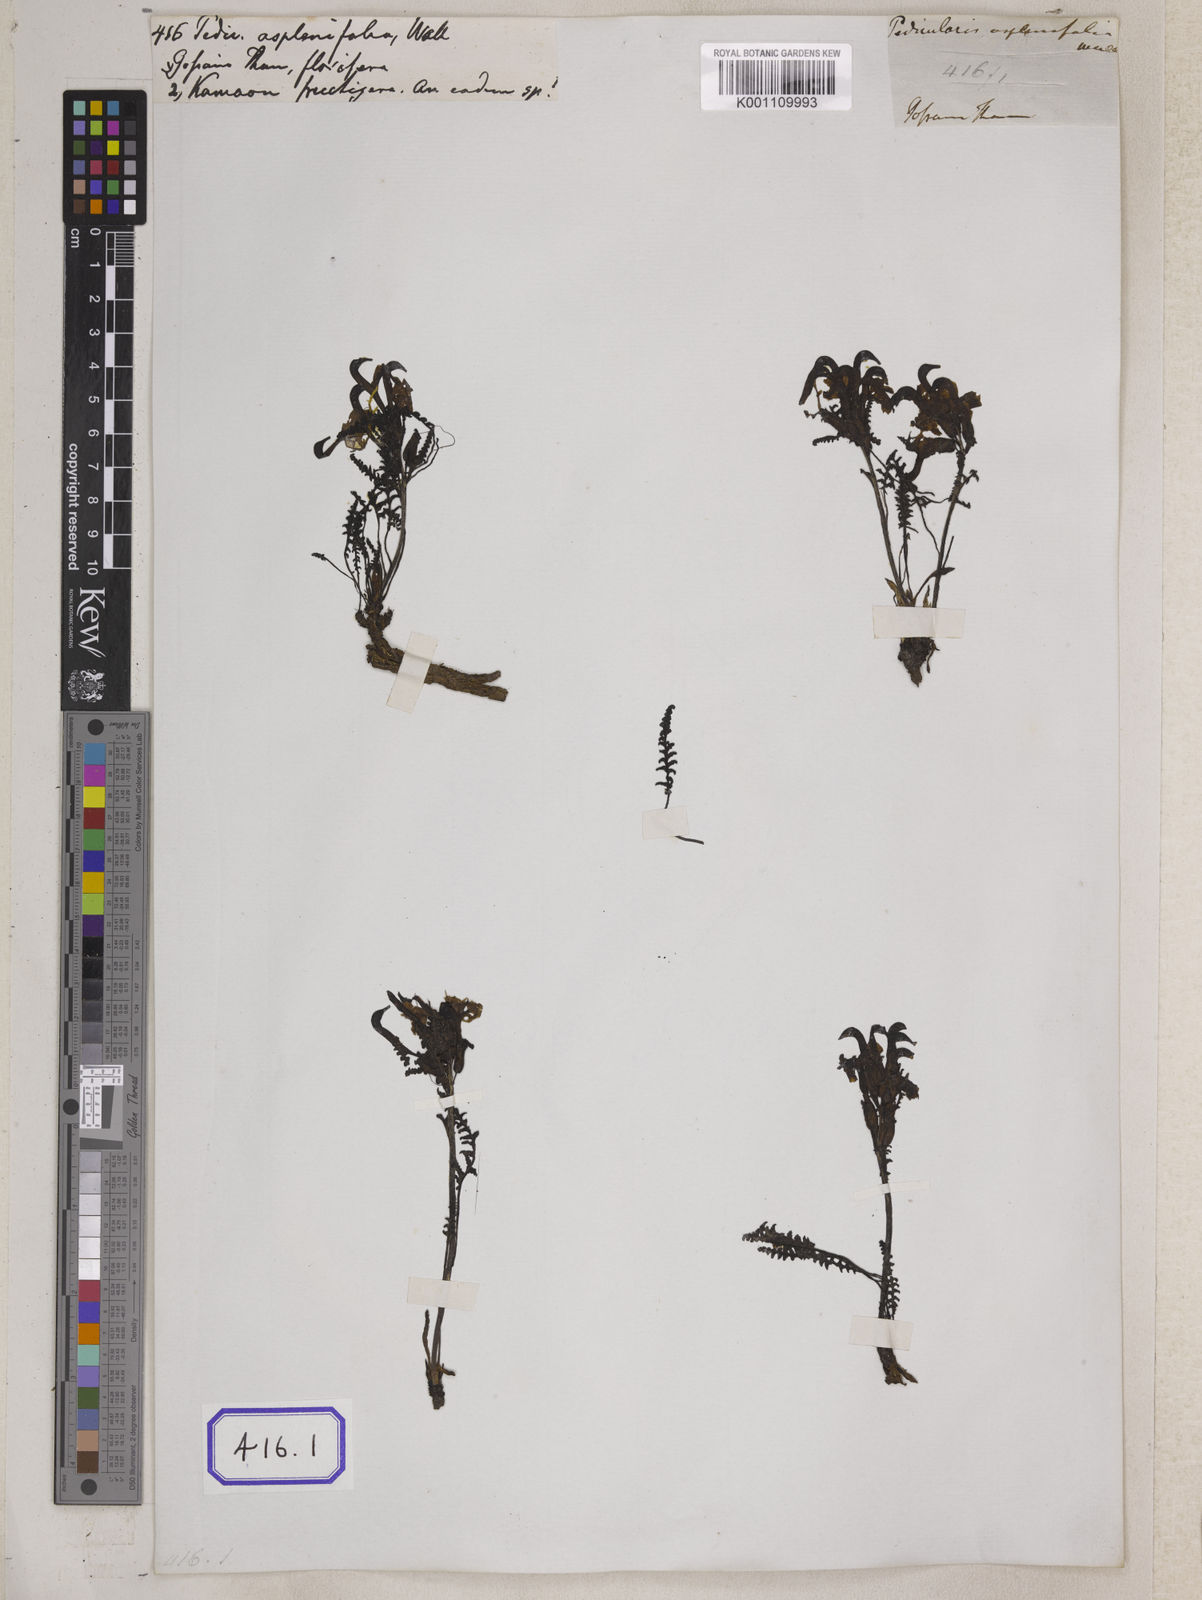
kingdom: Plantae
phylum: Tracheophyta
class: Magnoliopsida
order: Lamiales
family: Orobanchaceae
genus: Pedicularis
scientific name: Pedicularis
